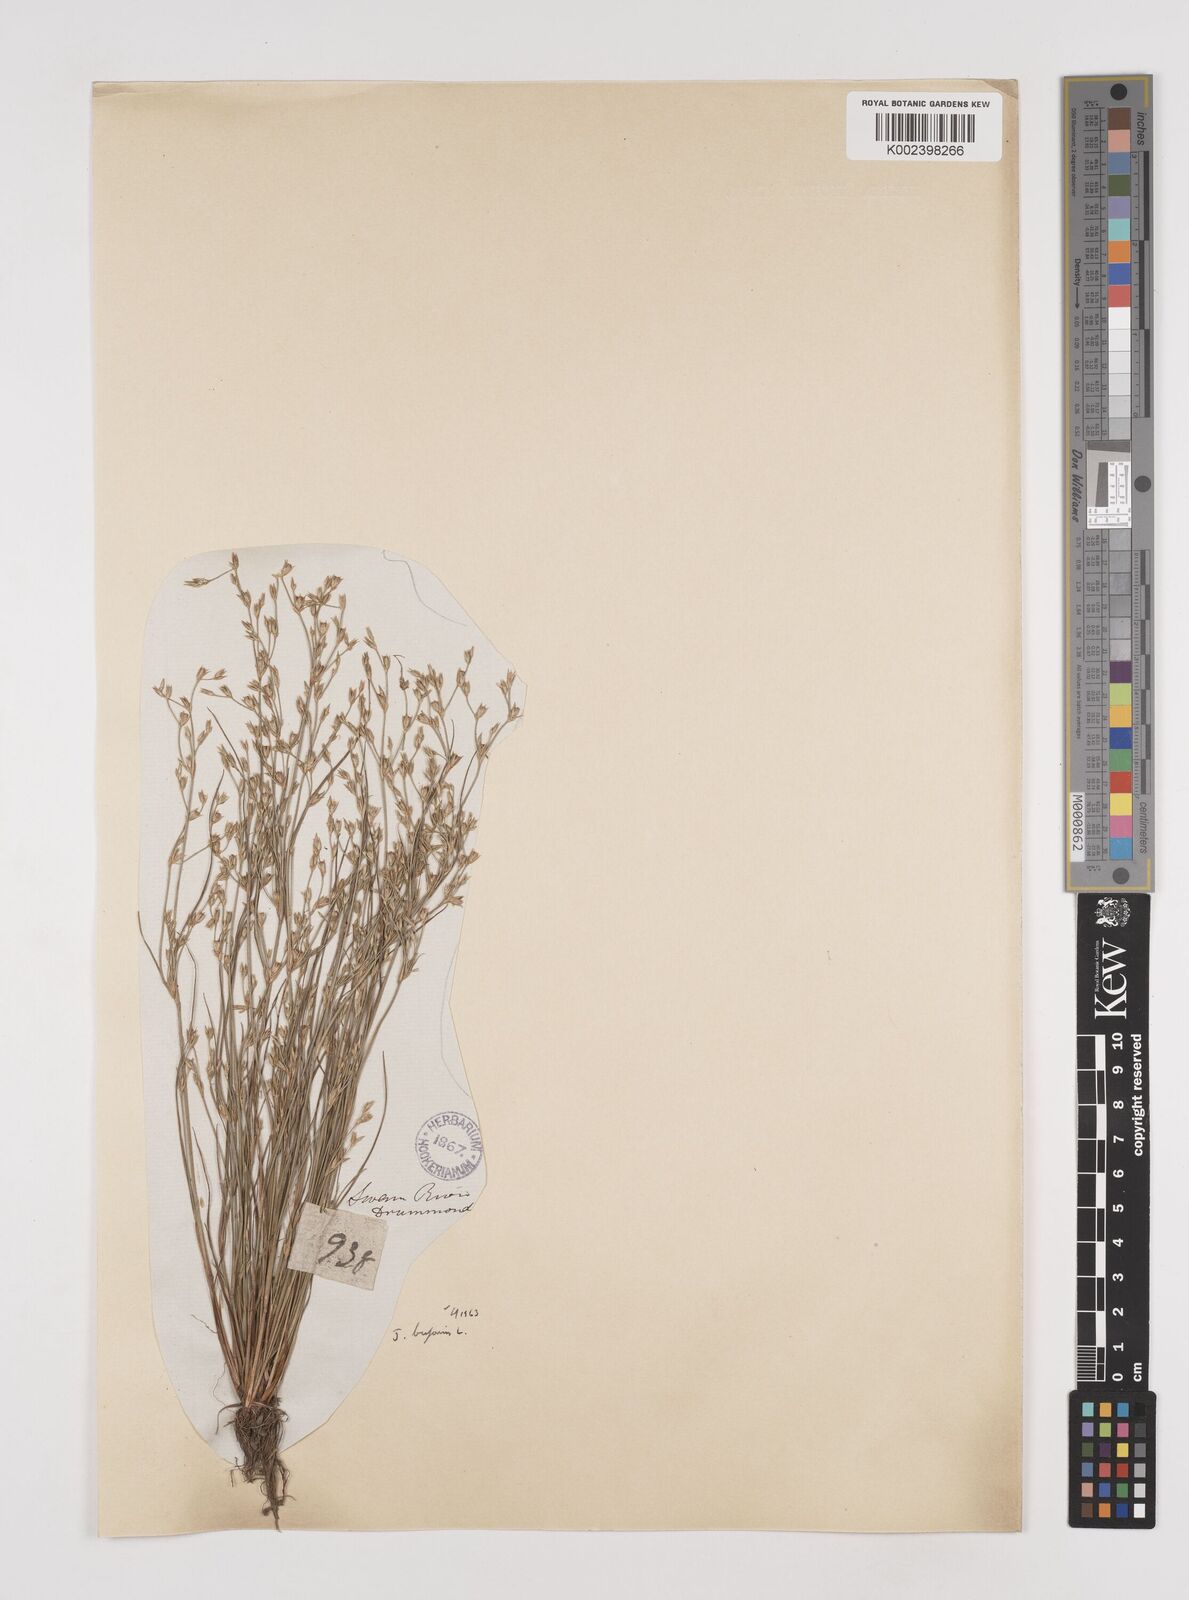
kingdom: Plantae
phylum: Tracheophyta
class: Liliopsida
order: Poales
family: Juncaceae
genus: Juncus
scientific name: Juncus bufonius
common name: Toad rush
